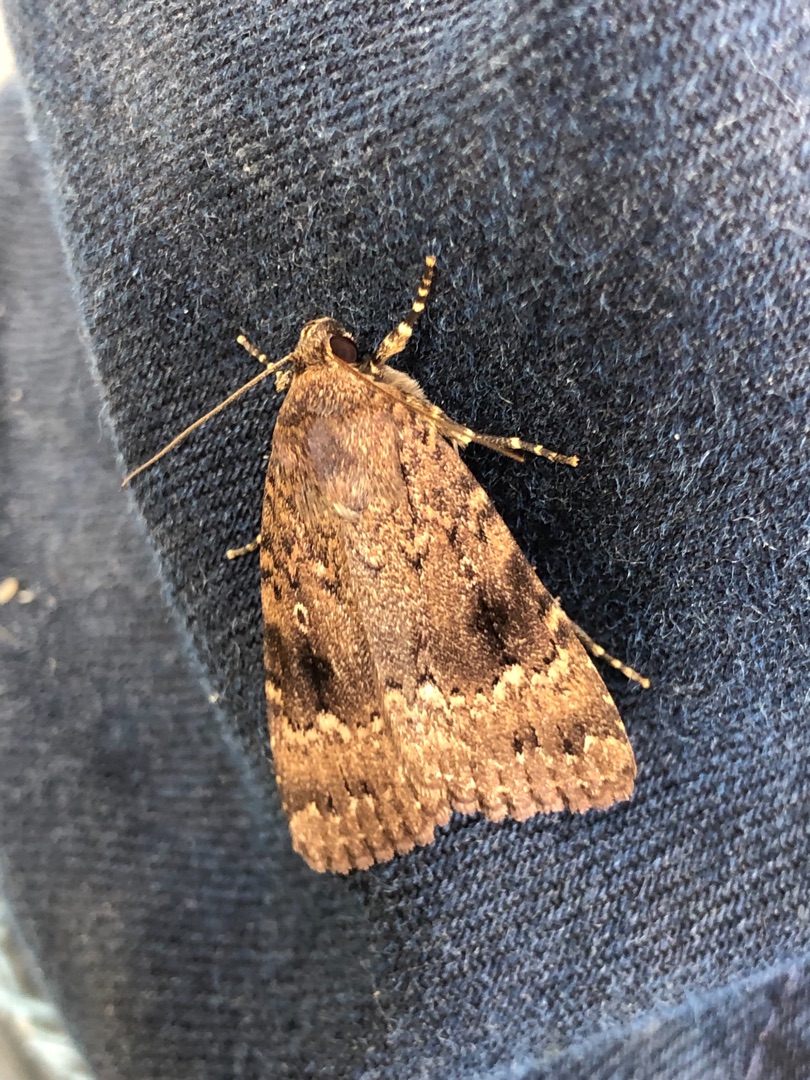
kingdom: Animalia
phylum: Arthropoda
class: Insecta
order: Lepidoptera
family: Noctuidae
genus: Amphipyra
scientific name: Amphipyra pyramidea
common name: Pyramideugle
